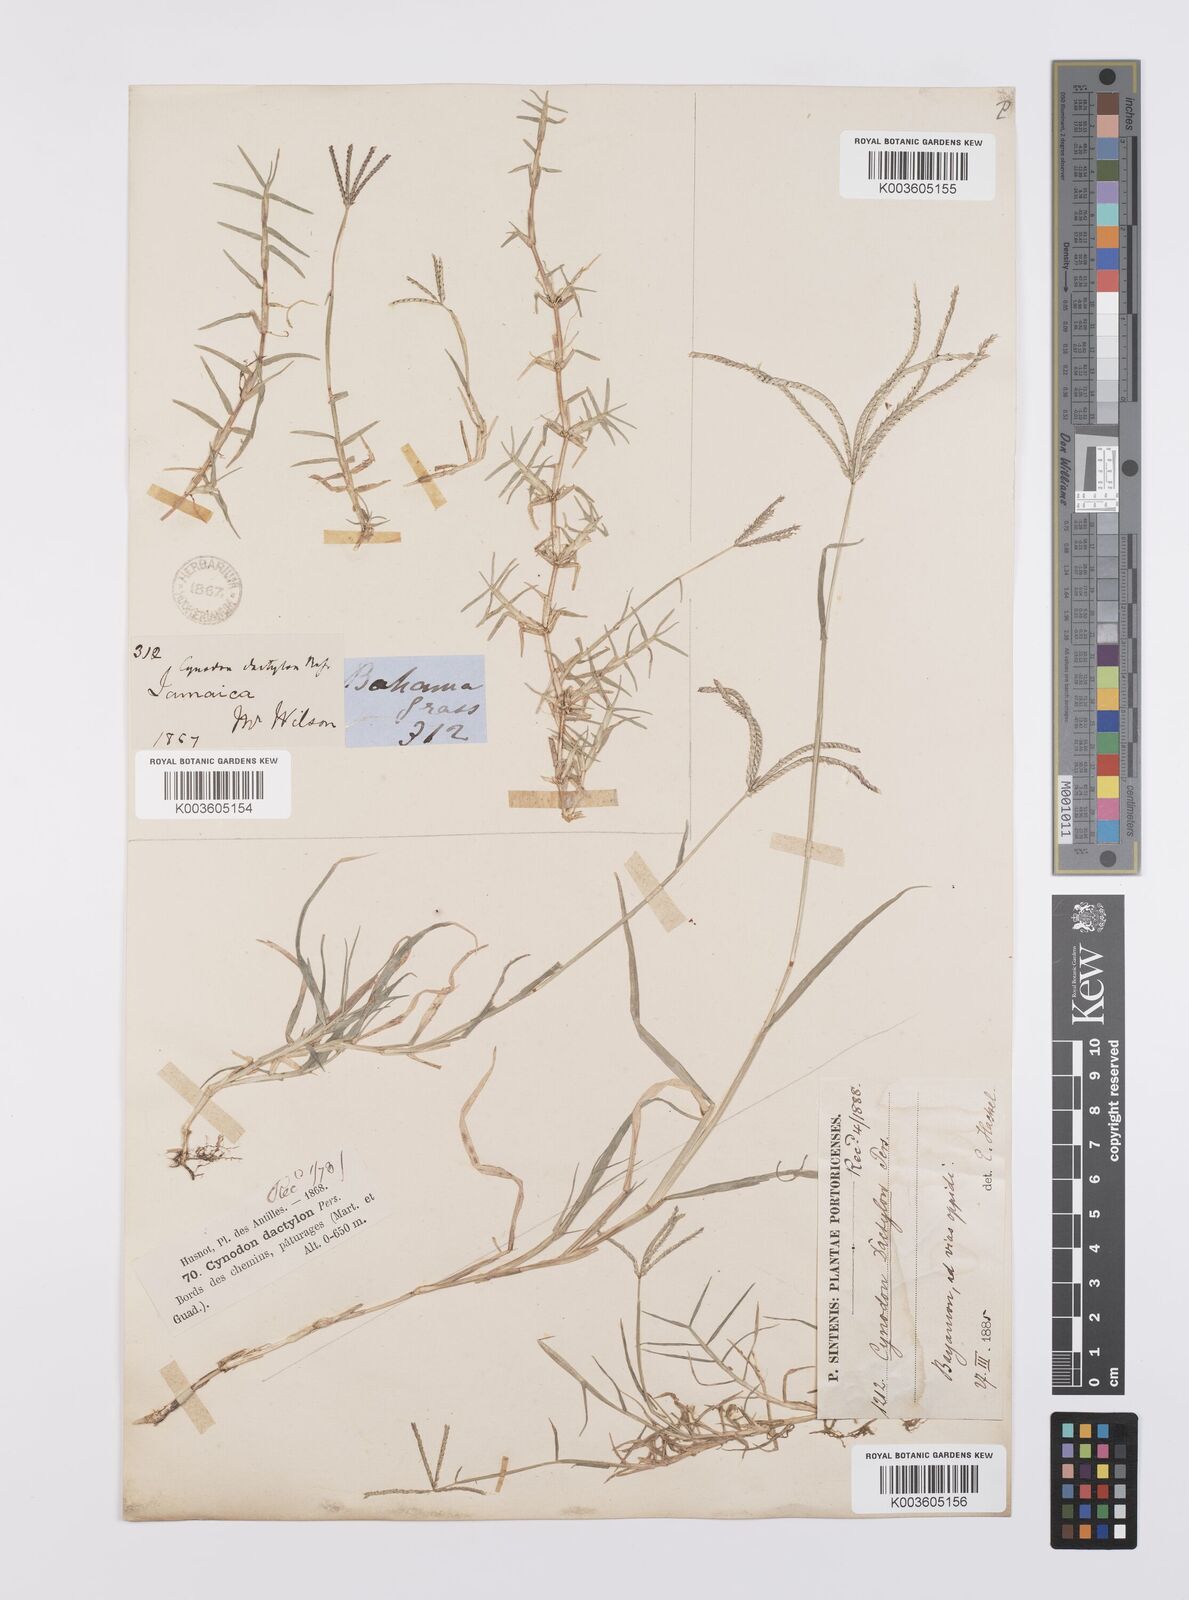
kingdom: Plantae
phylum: Tracheophyta
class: Liliopsida
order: Poales
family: Poaceae
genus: Cynodon
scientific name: Cynodon dactylon
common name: Bermuda grass
